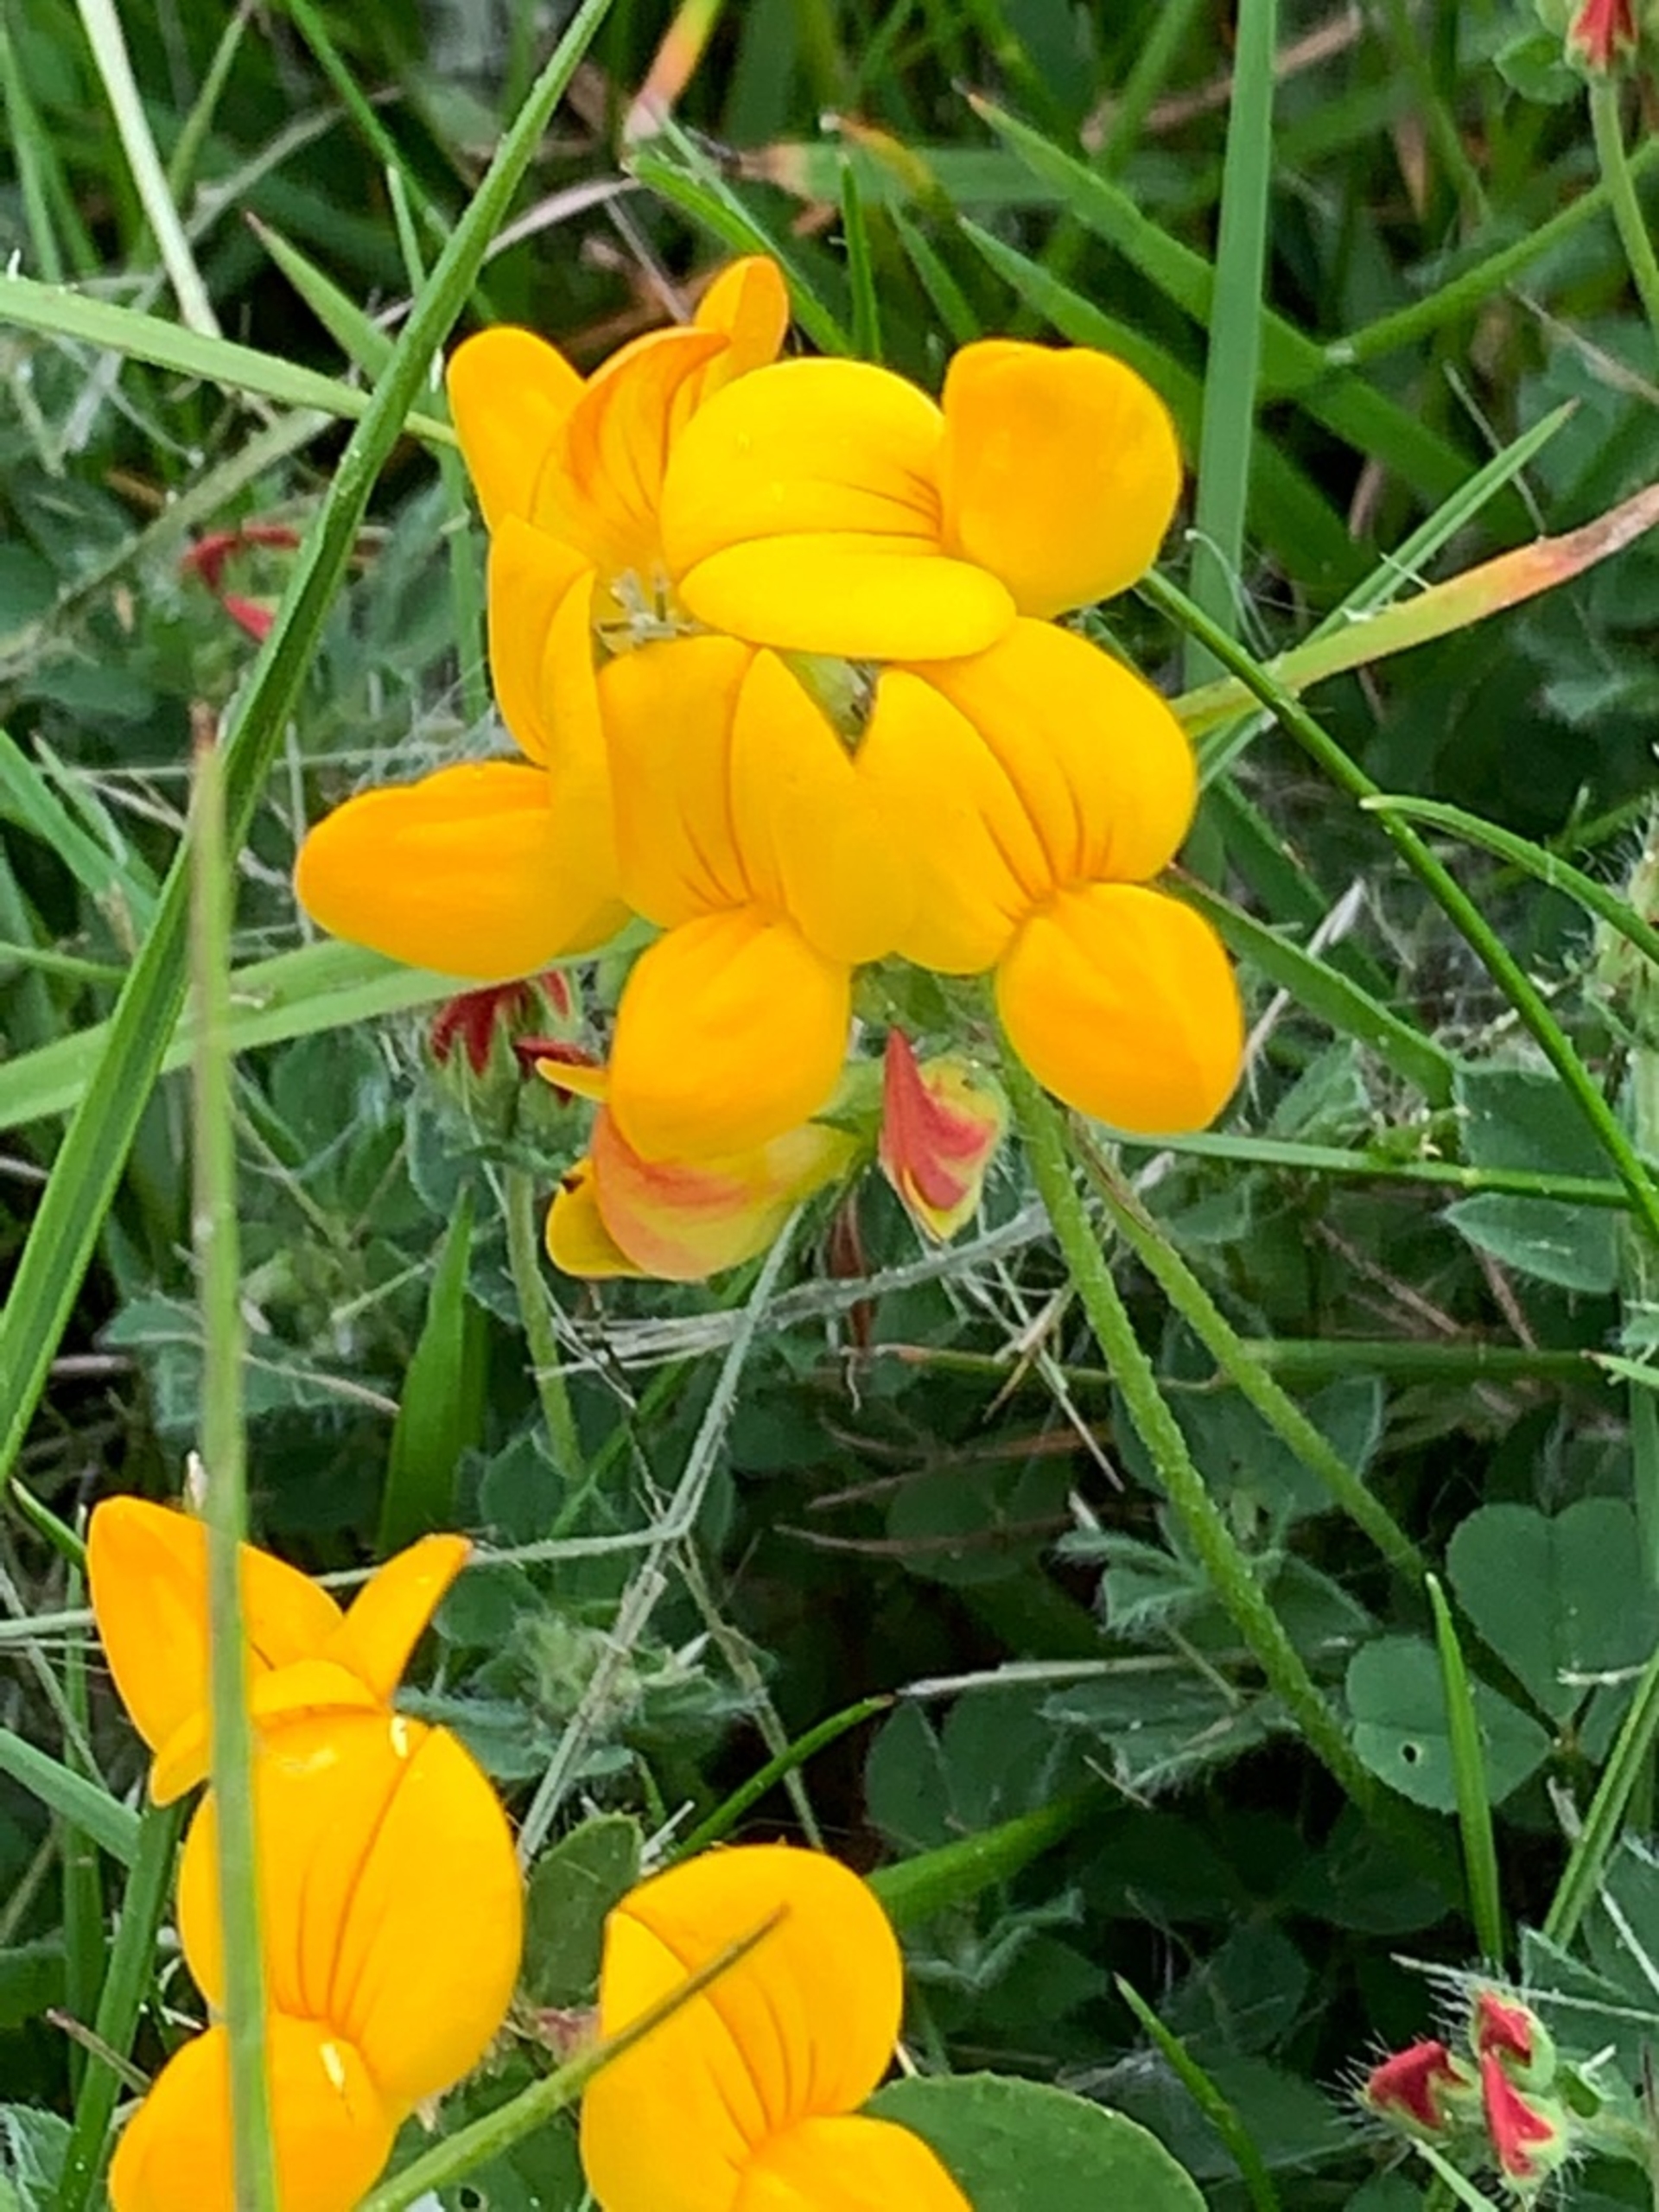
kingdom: Plantae
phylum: Tracheophyta
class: Magnoliopsida
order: Fabales
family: Fabaceae
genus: Lotus
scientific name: Lotus corniculatus
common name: Almindelig kællingetand
